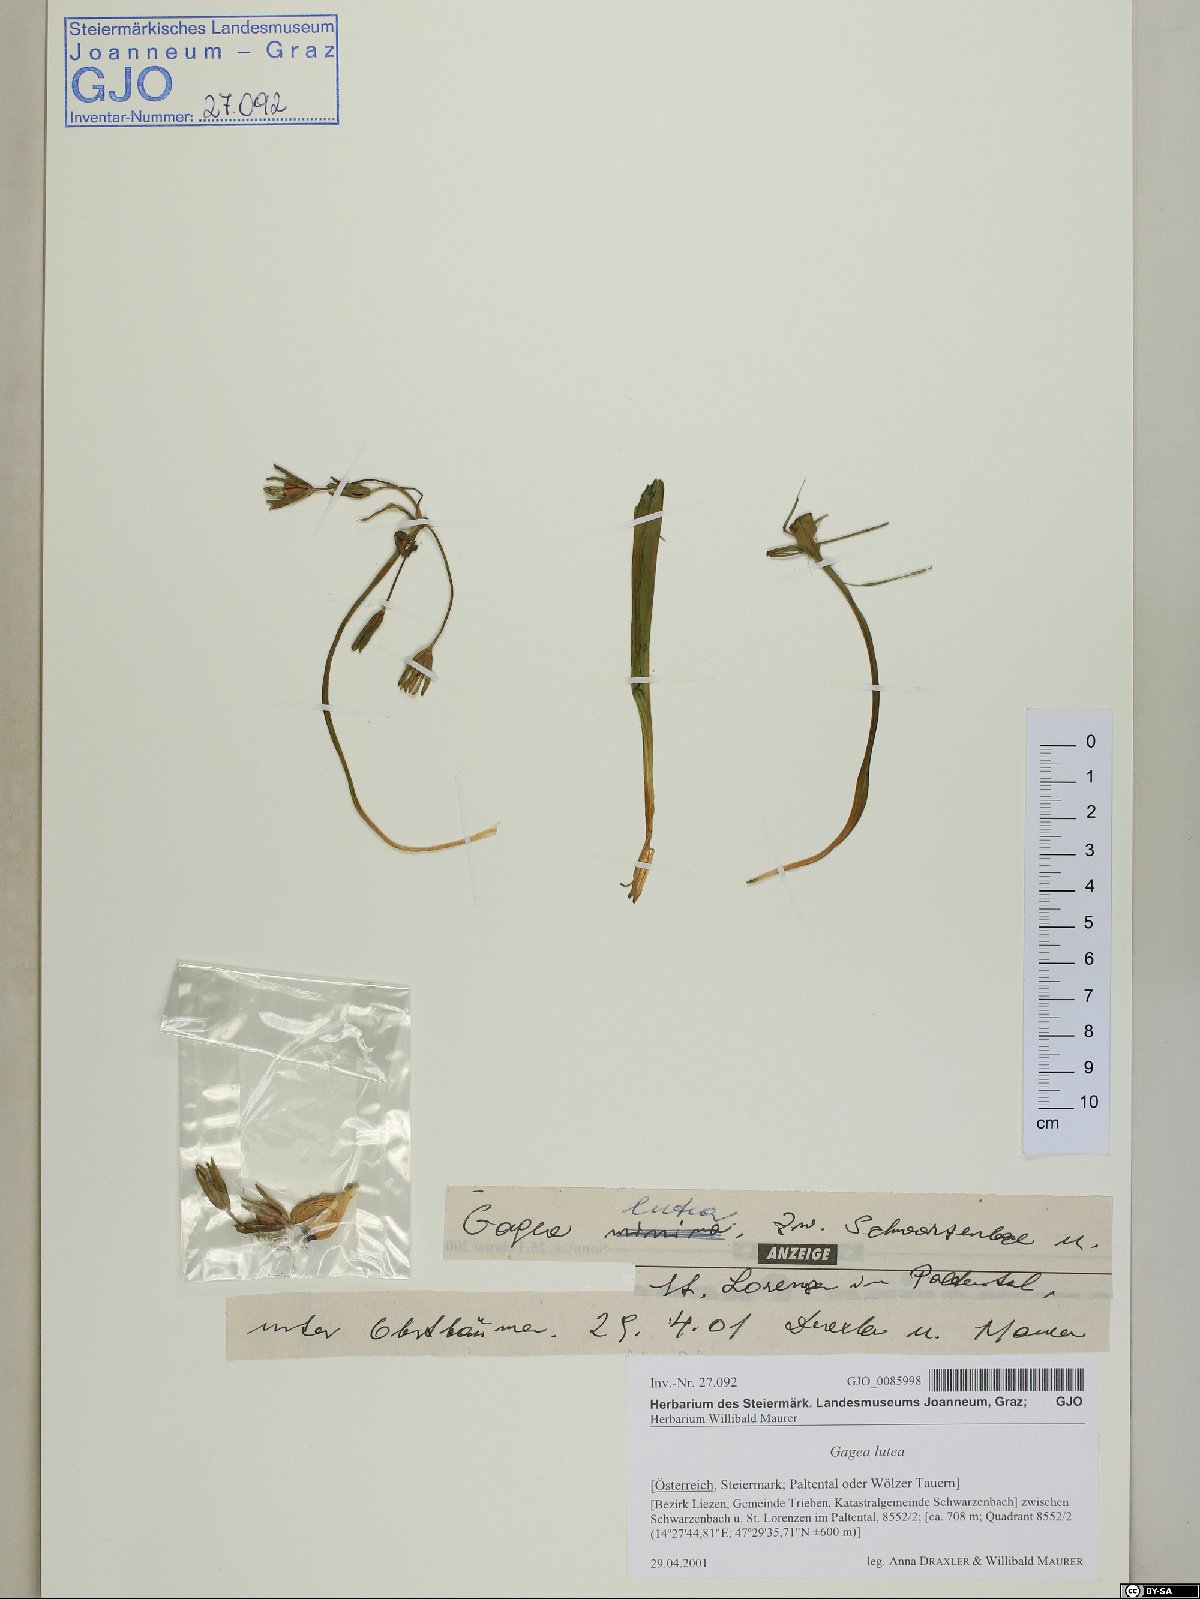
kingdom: Plantae
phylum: Tracheophyta
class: Liliopsida
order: Liliales
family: Liliaceae
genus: Gagea
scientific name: Gagea lutea
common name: Yellow star-of-bethlehem
